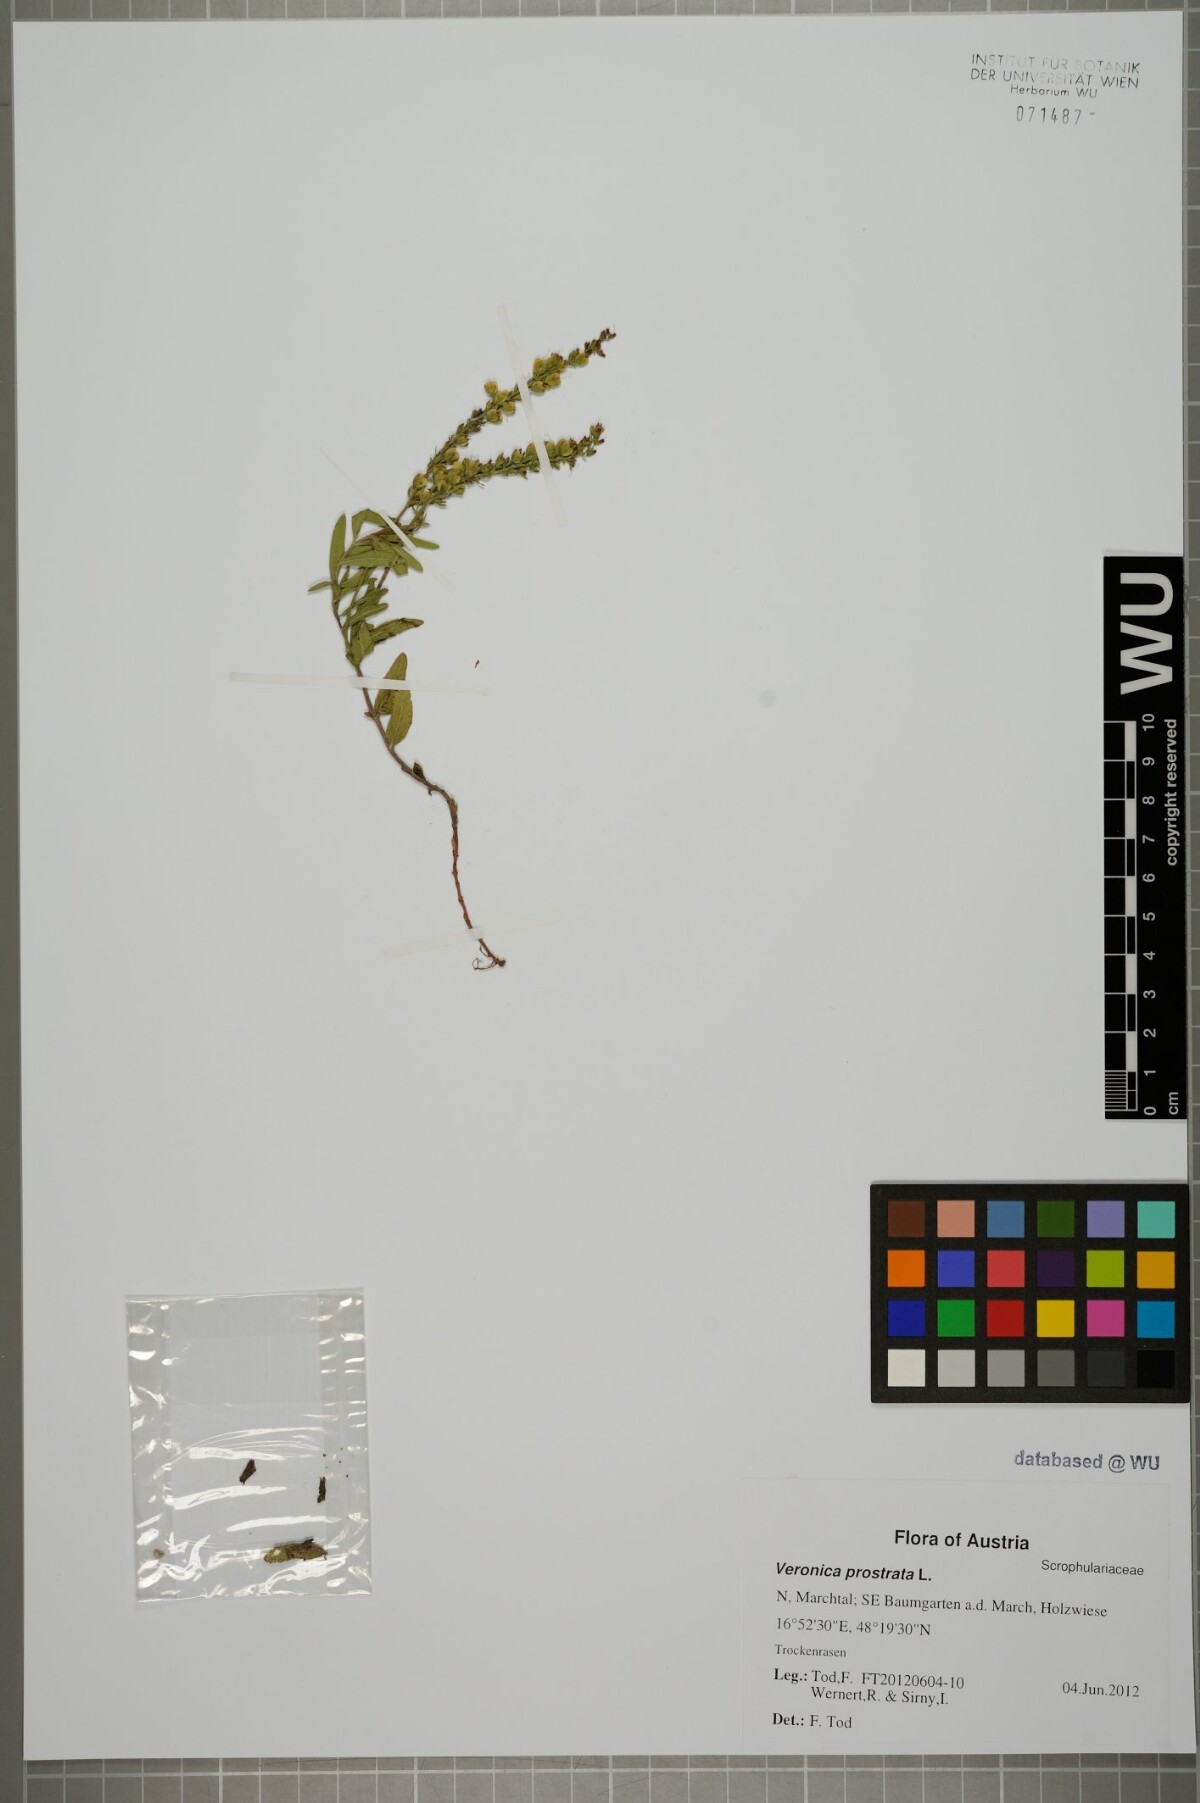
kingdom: Plantae
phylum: Tracheophyta
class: Magnoliopsida
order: Lamiales
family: Plantaginaceae
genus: Veronica
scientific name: Veronica prostrata
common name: Prostrate speedwell
